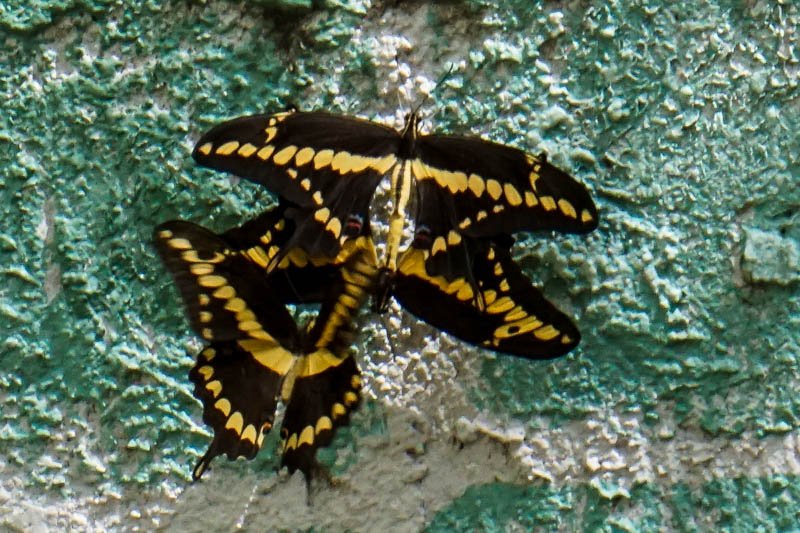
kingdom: Animalia
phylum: Arthropoda
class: Insecta
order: Lepidoptera
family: Papilionidae
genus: Papilio
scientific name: Papilio rumiko
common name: Western Giant Swallowtail
